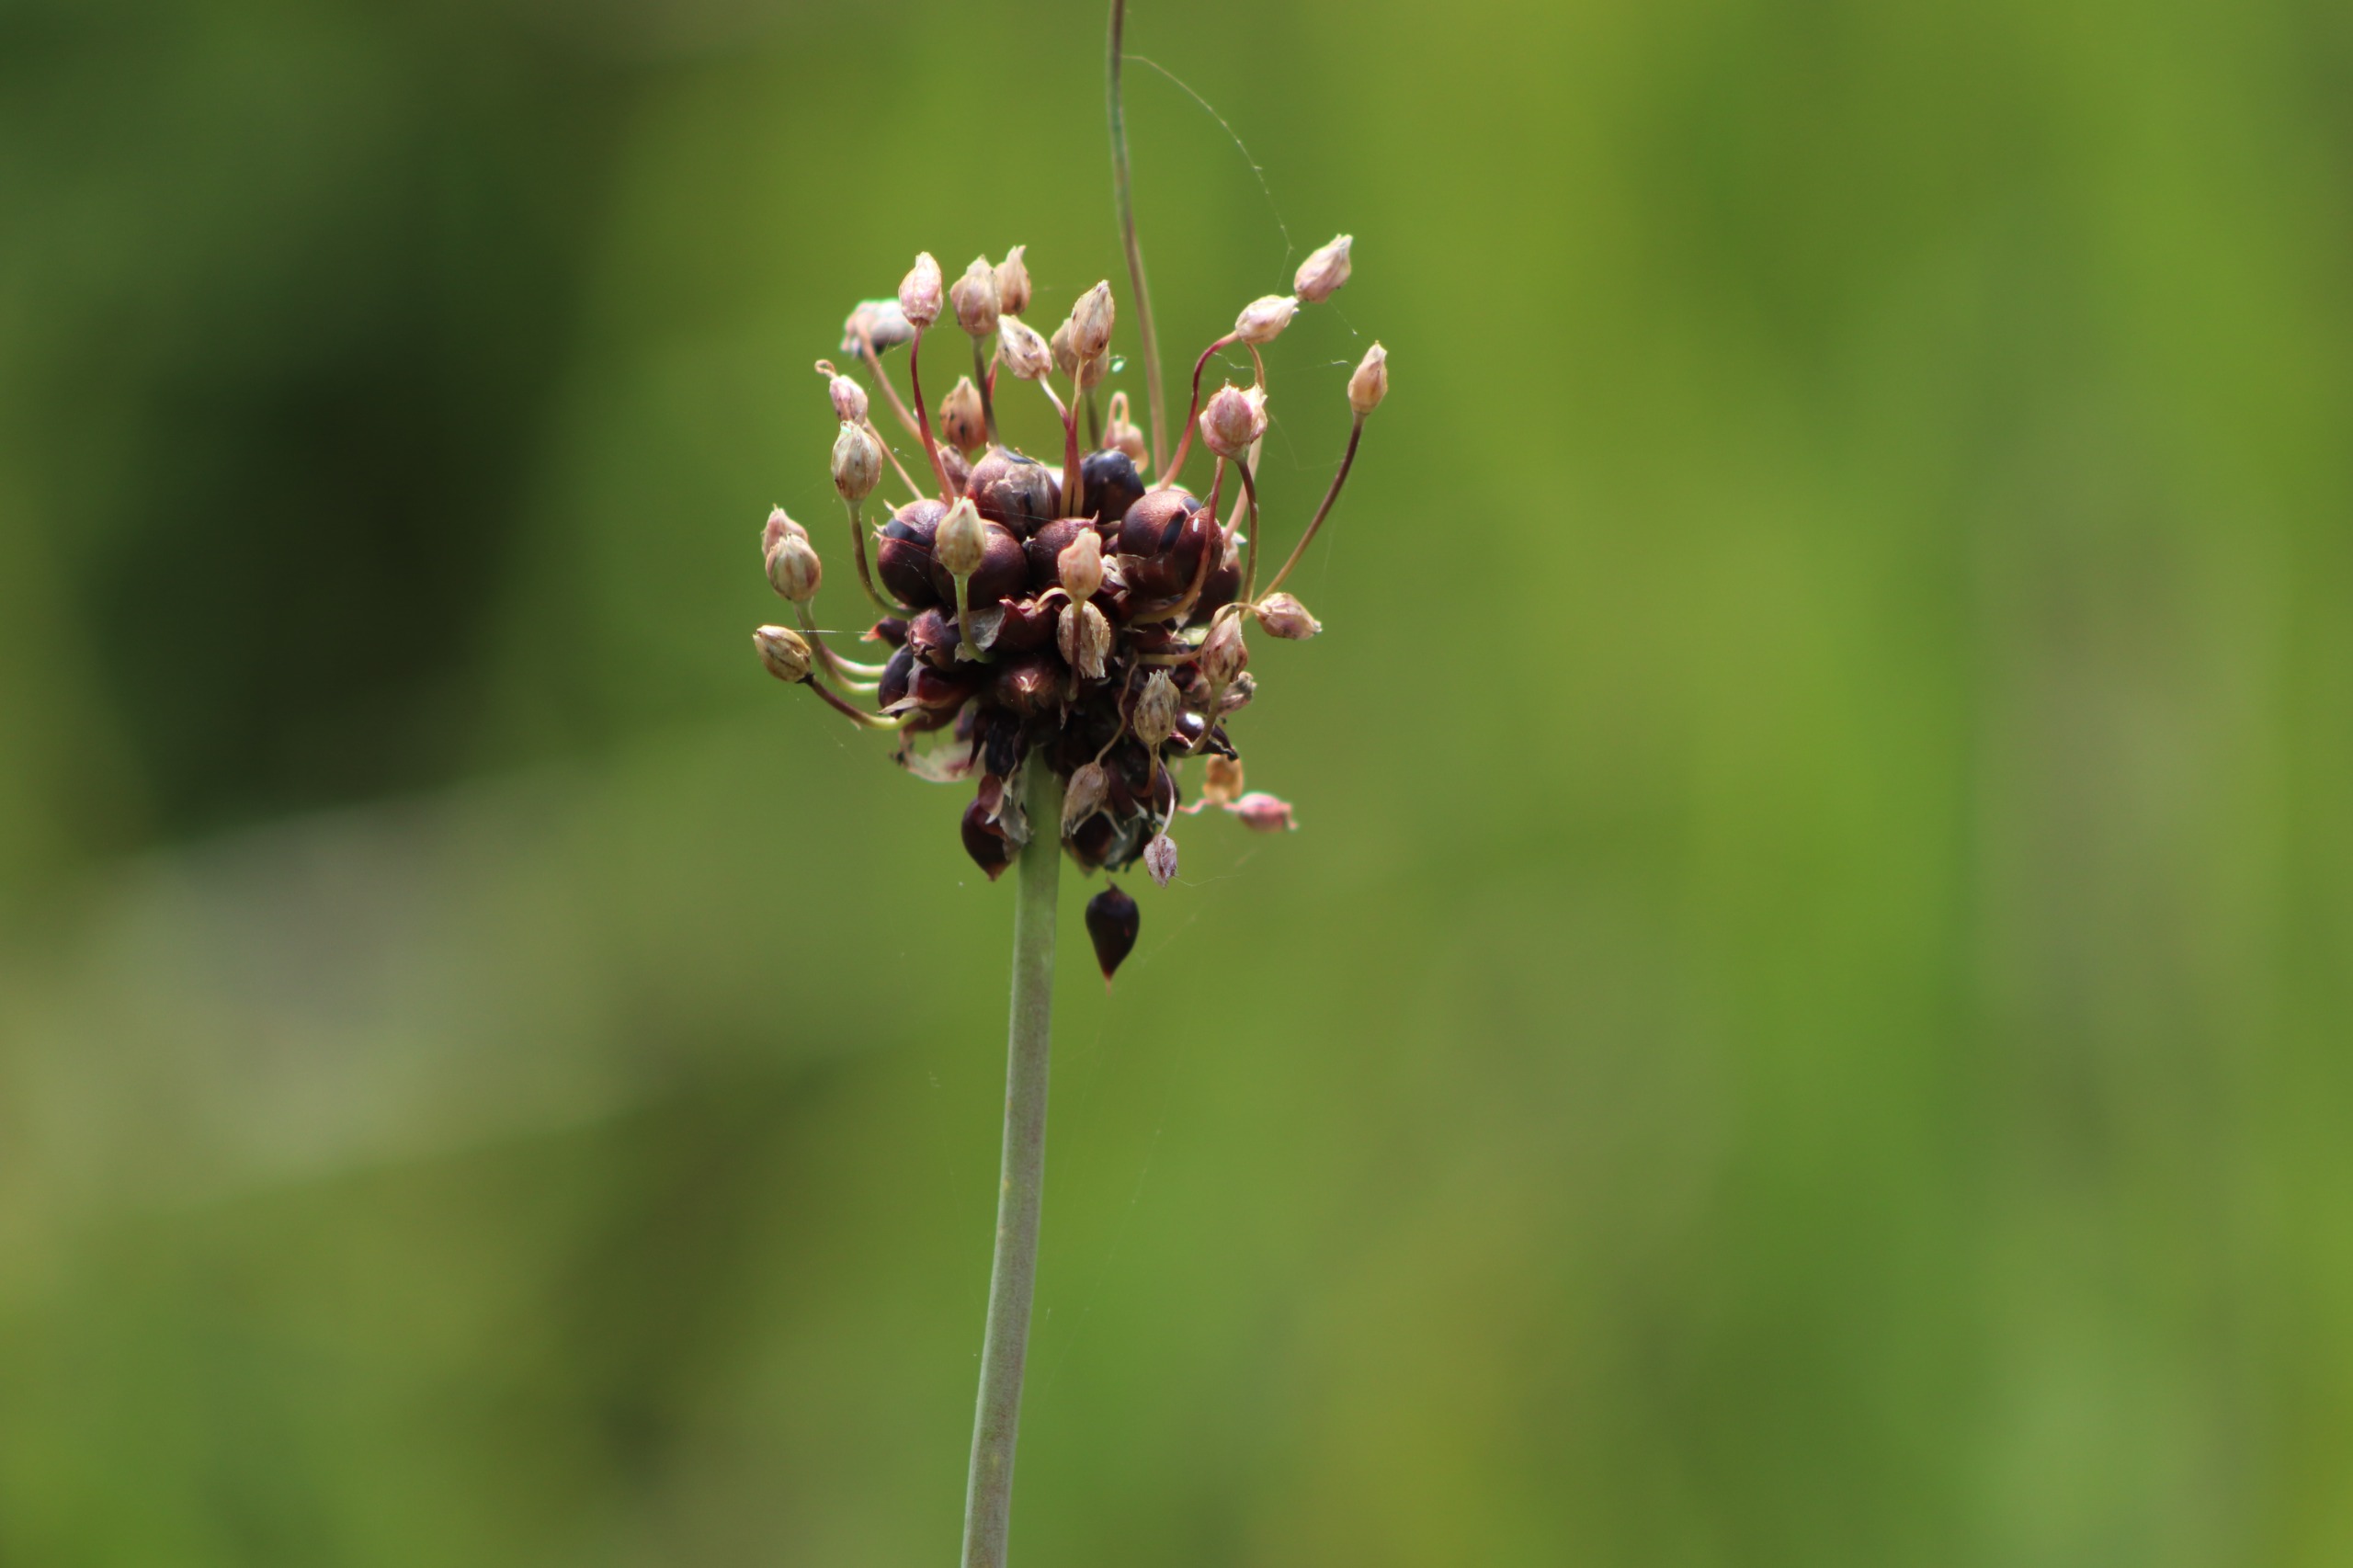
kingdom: Plantae
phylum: Tracheophyta
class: Liliopsida
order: Asparagales
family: Amaryllidaceae
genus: Allium
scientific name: Allium scorodoprasum
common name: Skov-løg
